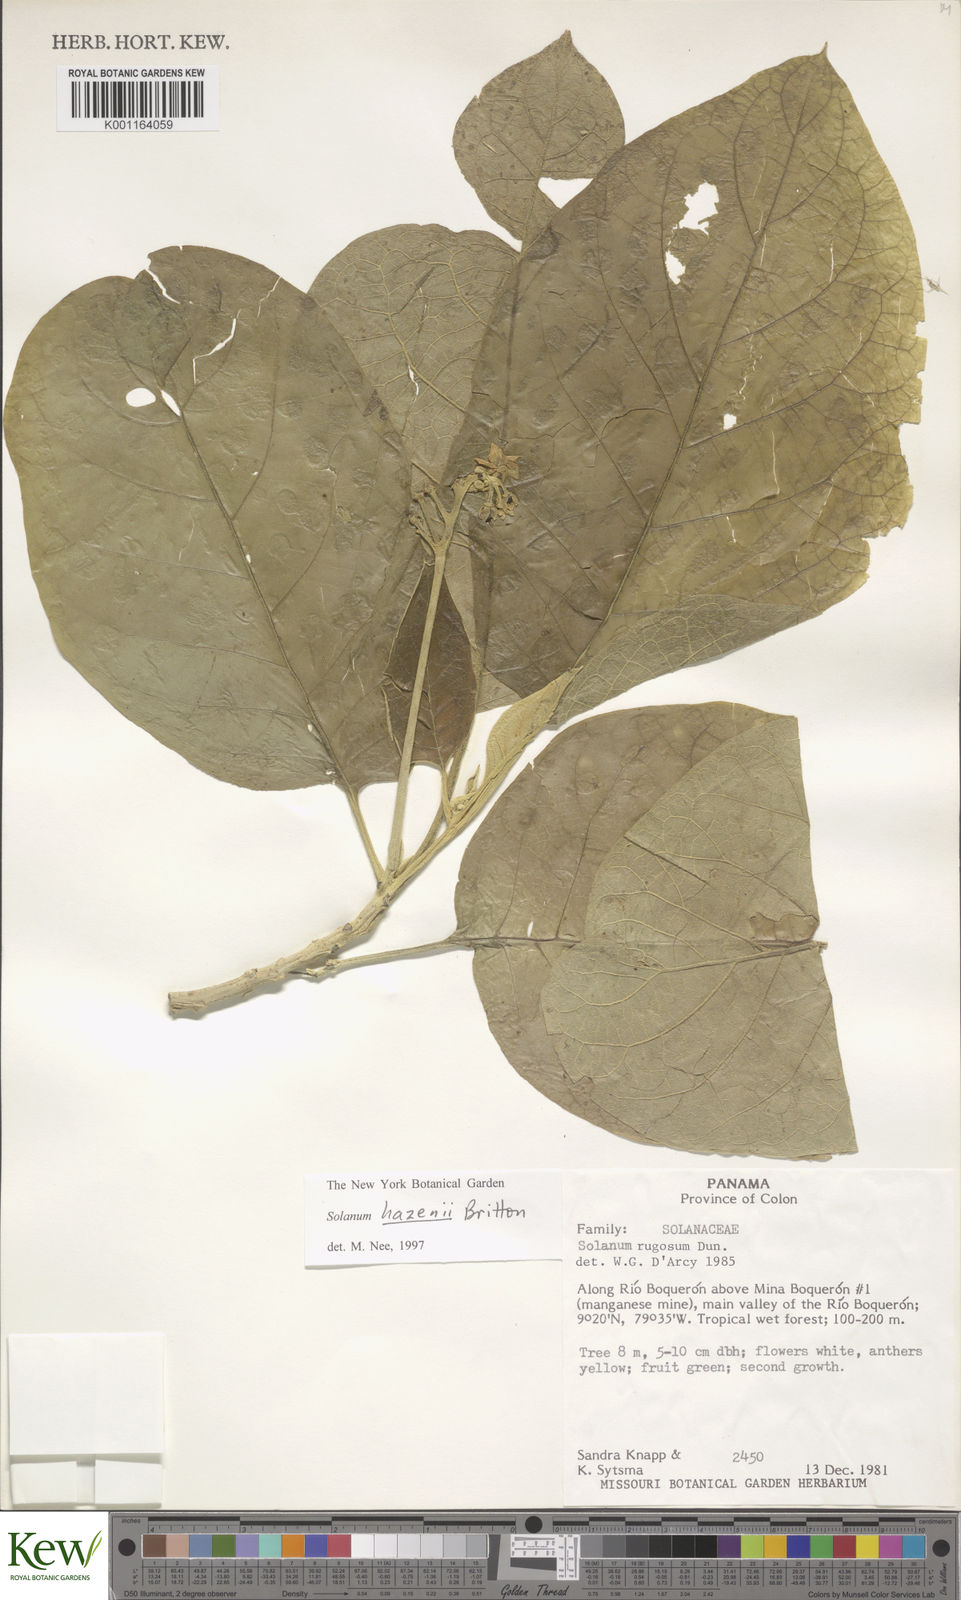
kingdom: Plantae
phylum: Tracheophyta
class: Magnoliopsida
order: Solanales
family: Solanaceae
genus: Solanum
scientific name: Solanum hazenii
